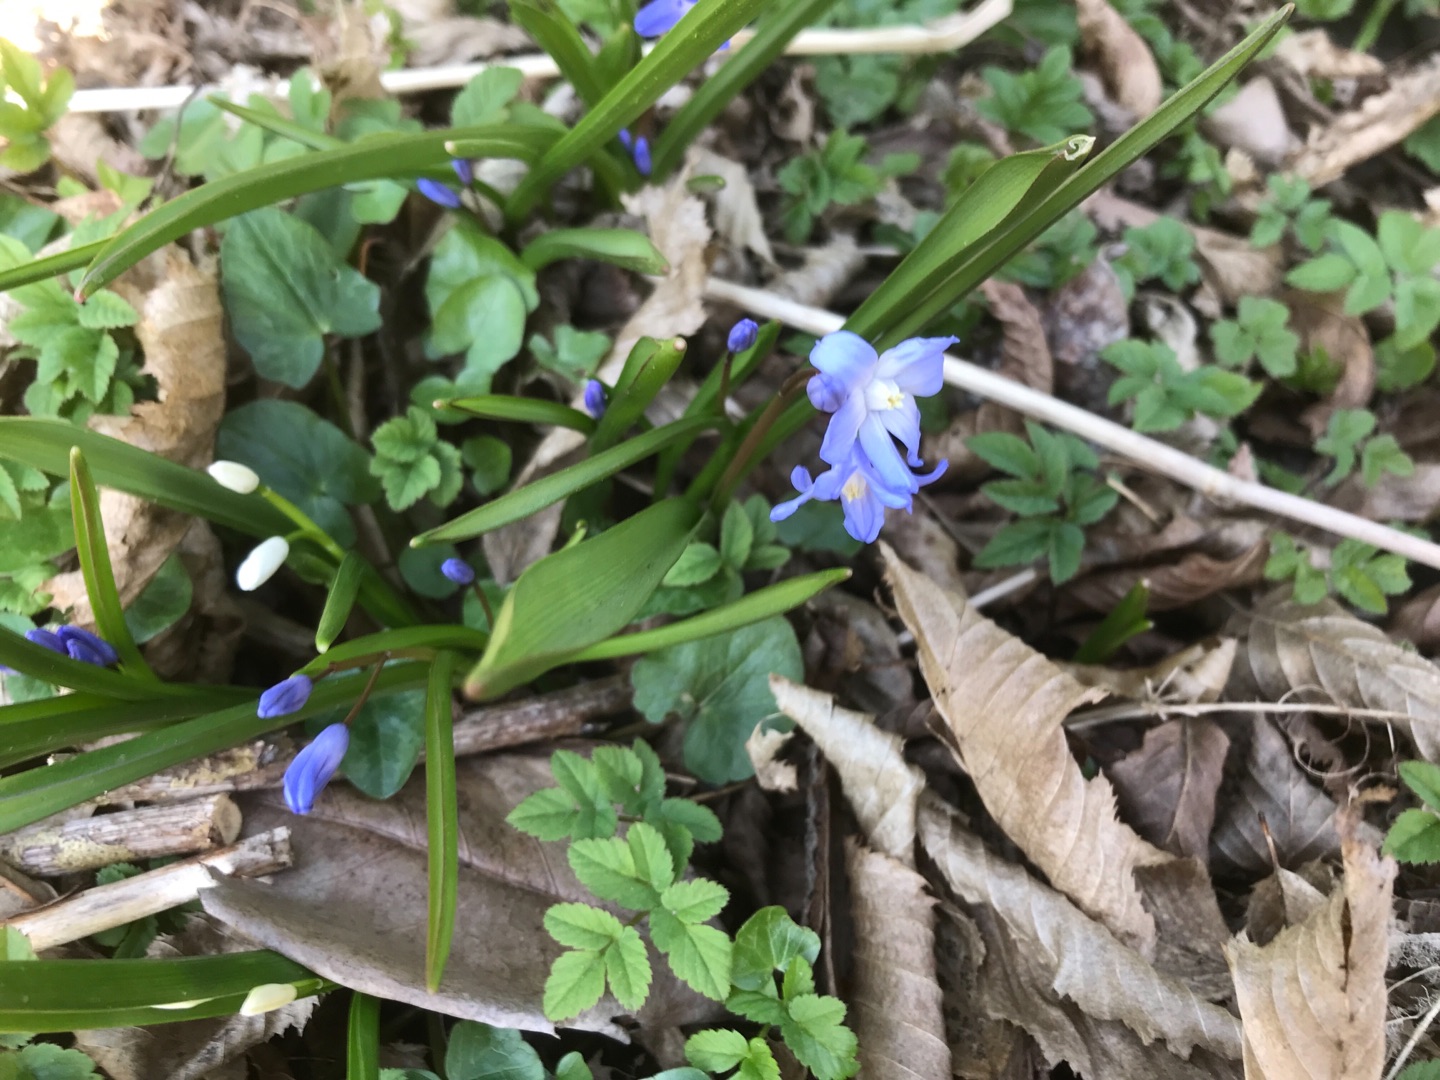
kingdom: Plantae
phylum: Tracheophyta
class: Liliopsida
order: Asparagales
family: Asparagaceae
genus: Scilla
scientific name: Scilla forbesii
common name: Almindelig snepryd
